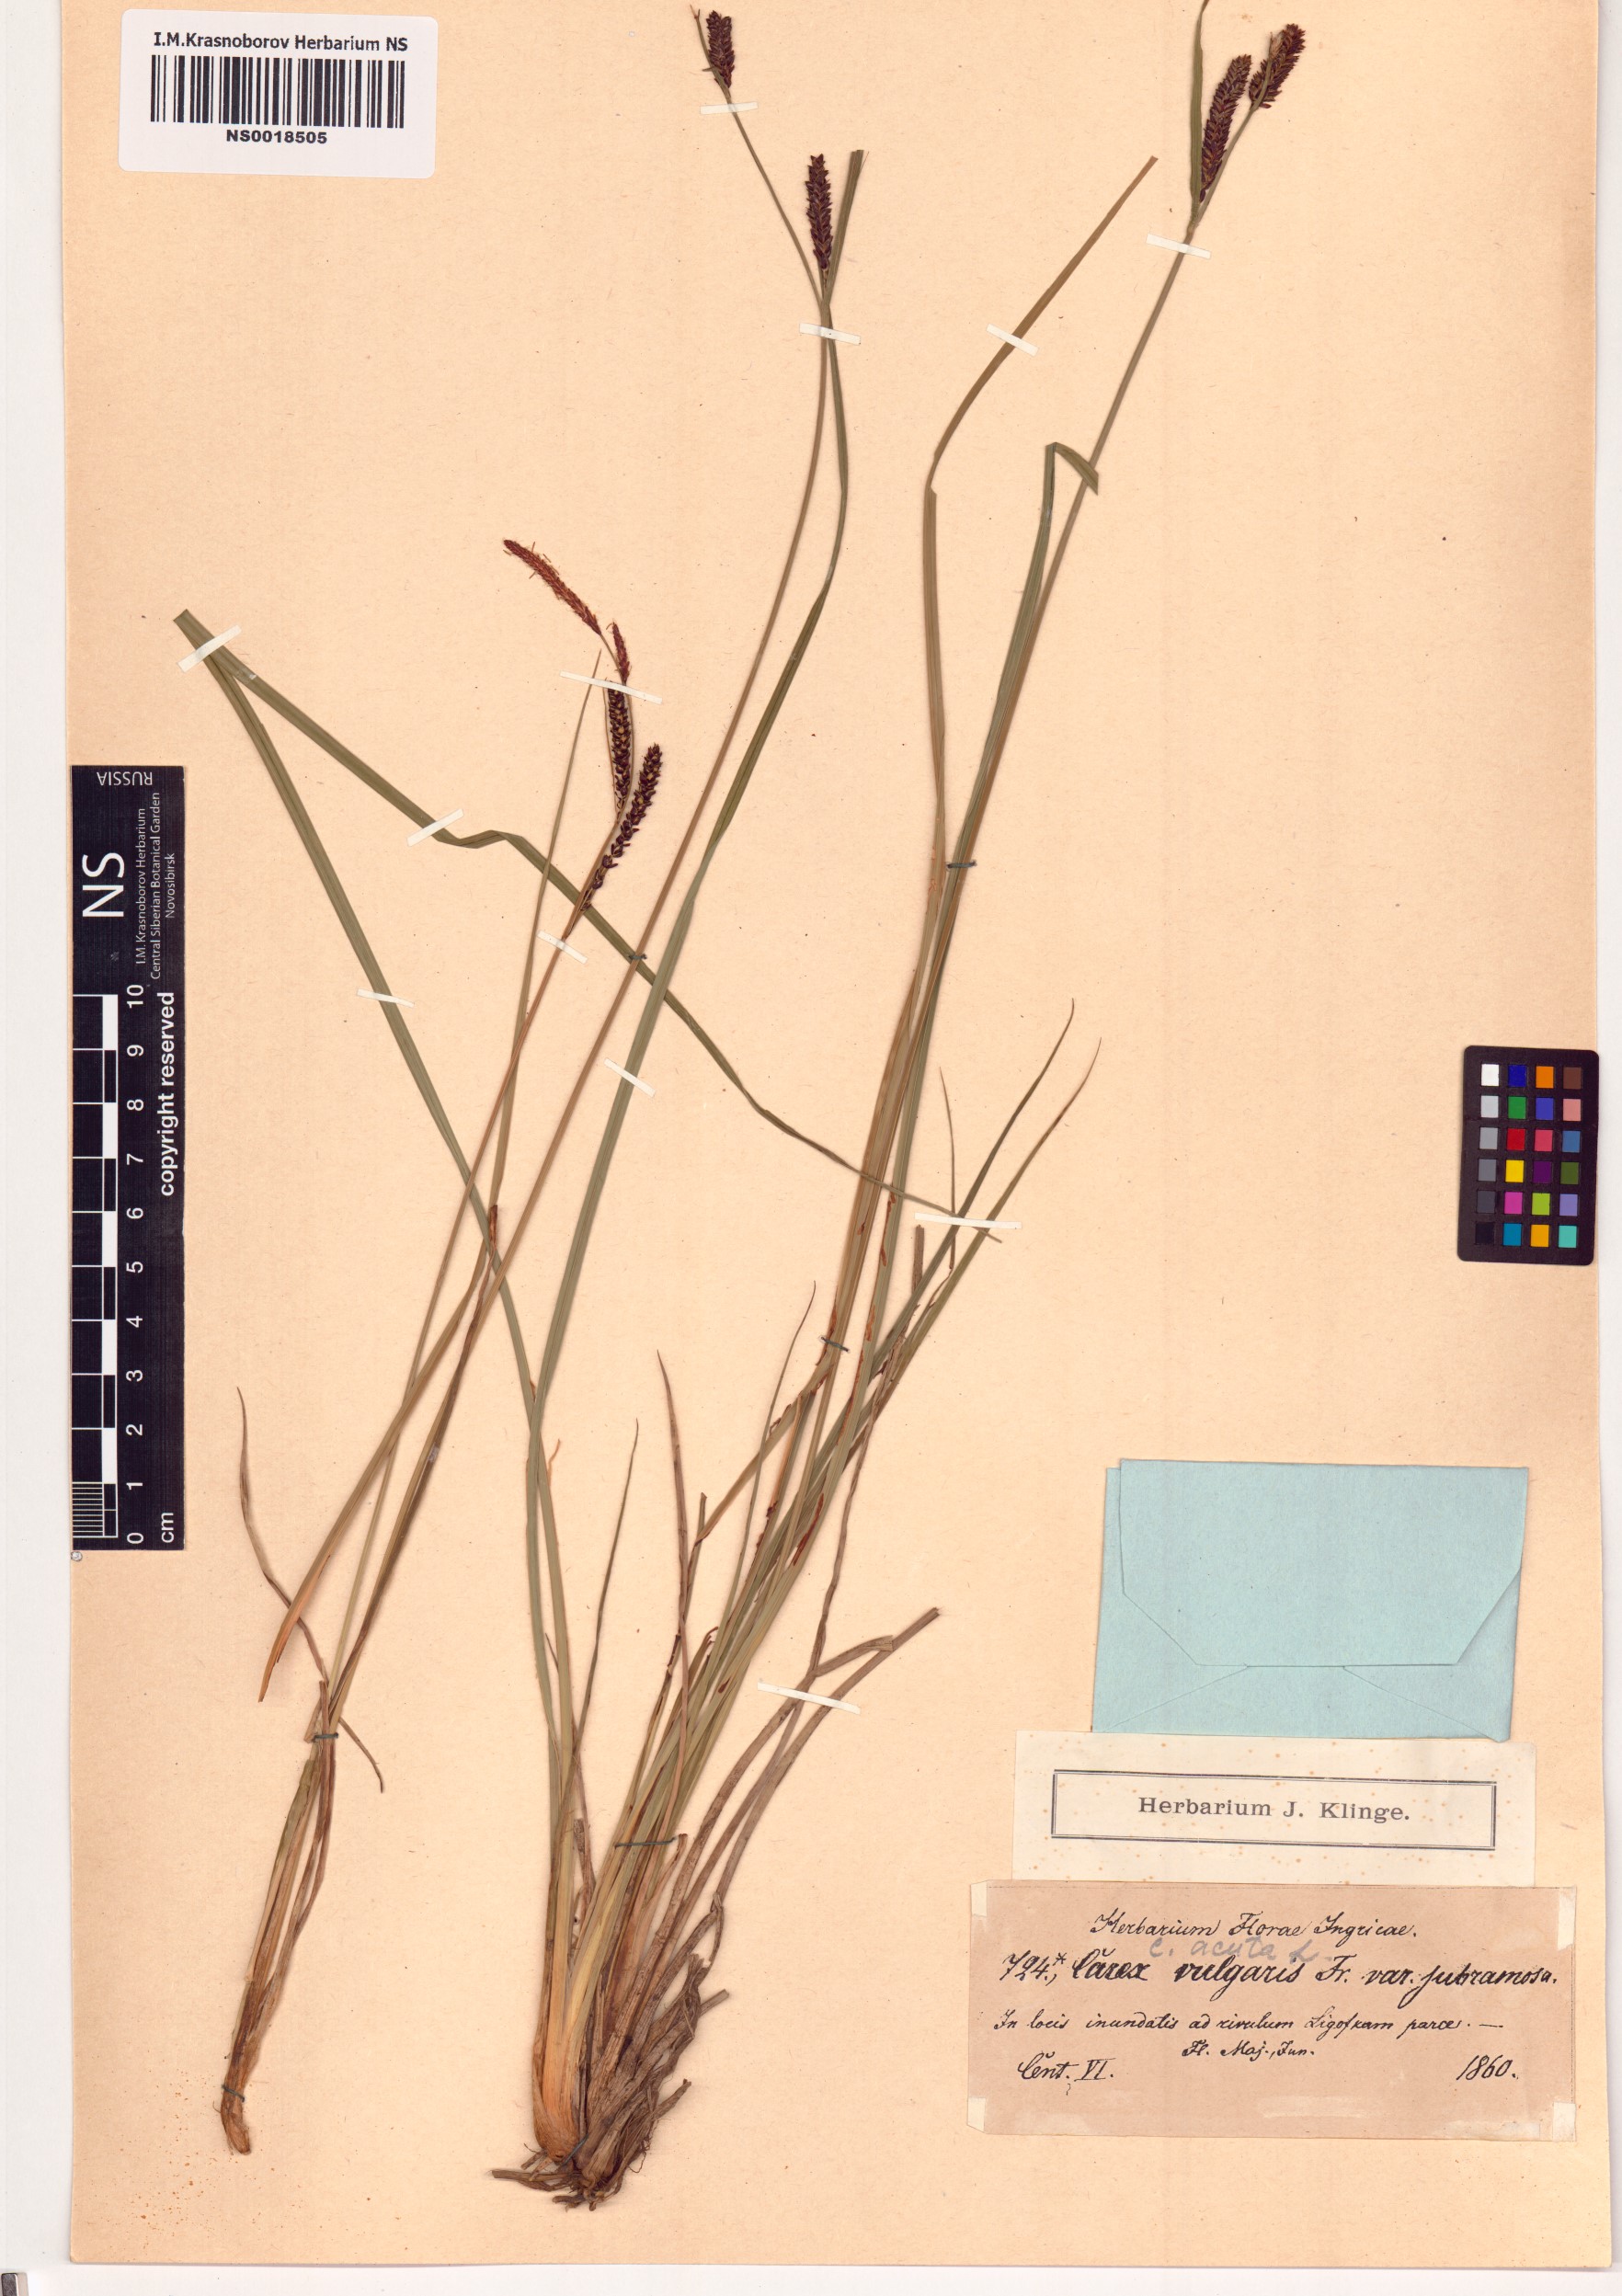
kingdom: Plantae
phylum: Tracheophyta
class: Liliopsida
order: Poales
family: Cyperaceae
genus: Carex
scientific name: Carex acuta
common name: Slender tufted-sedge
